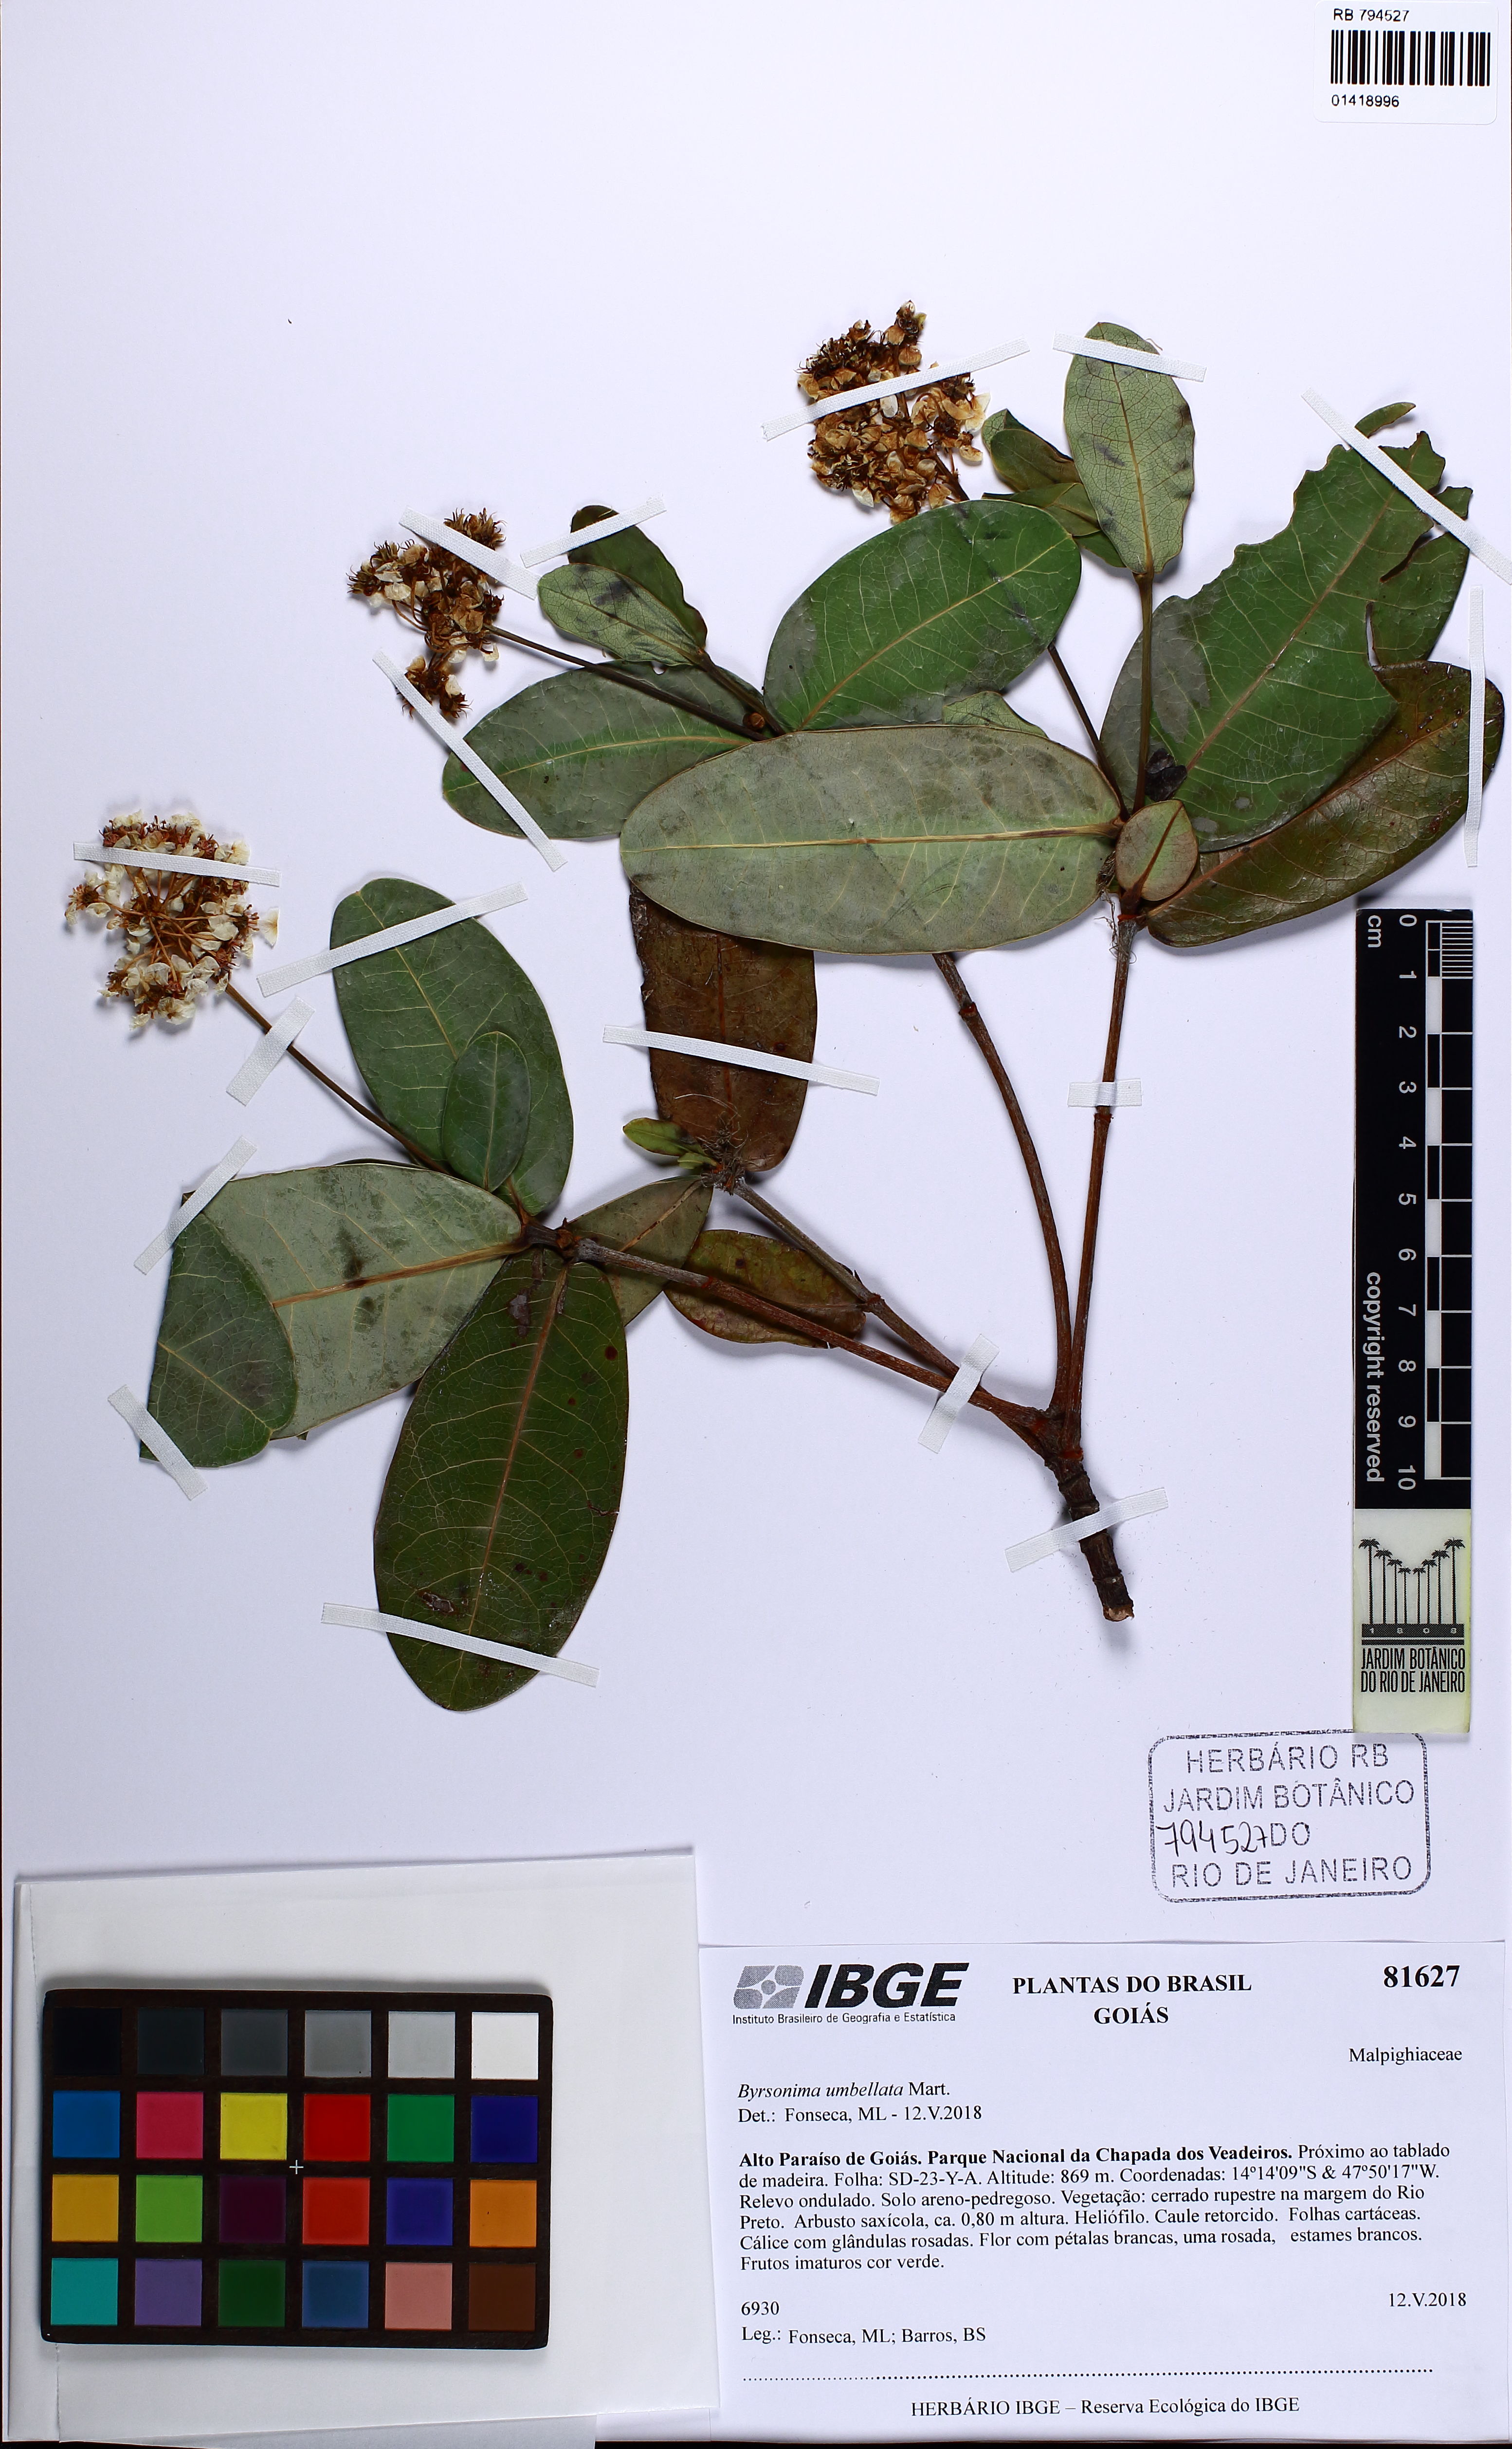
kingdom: Plantae
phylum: Tracheophyta
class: Magnoliopsida
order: Malpighiales
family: Malpighiaceae
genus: Byrsonima
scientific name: Byrsonima umbellata
